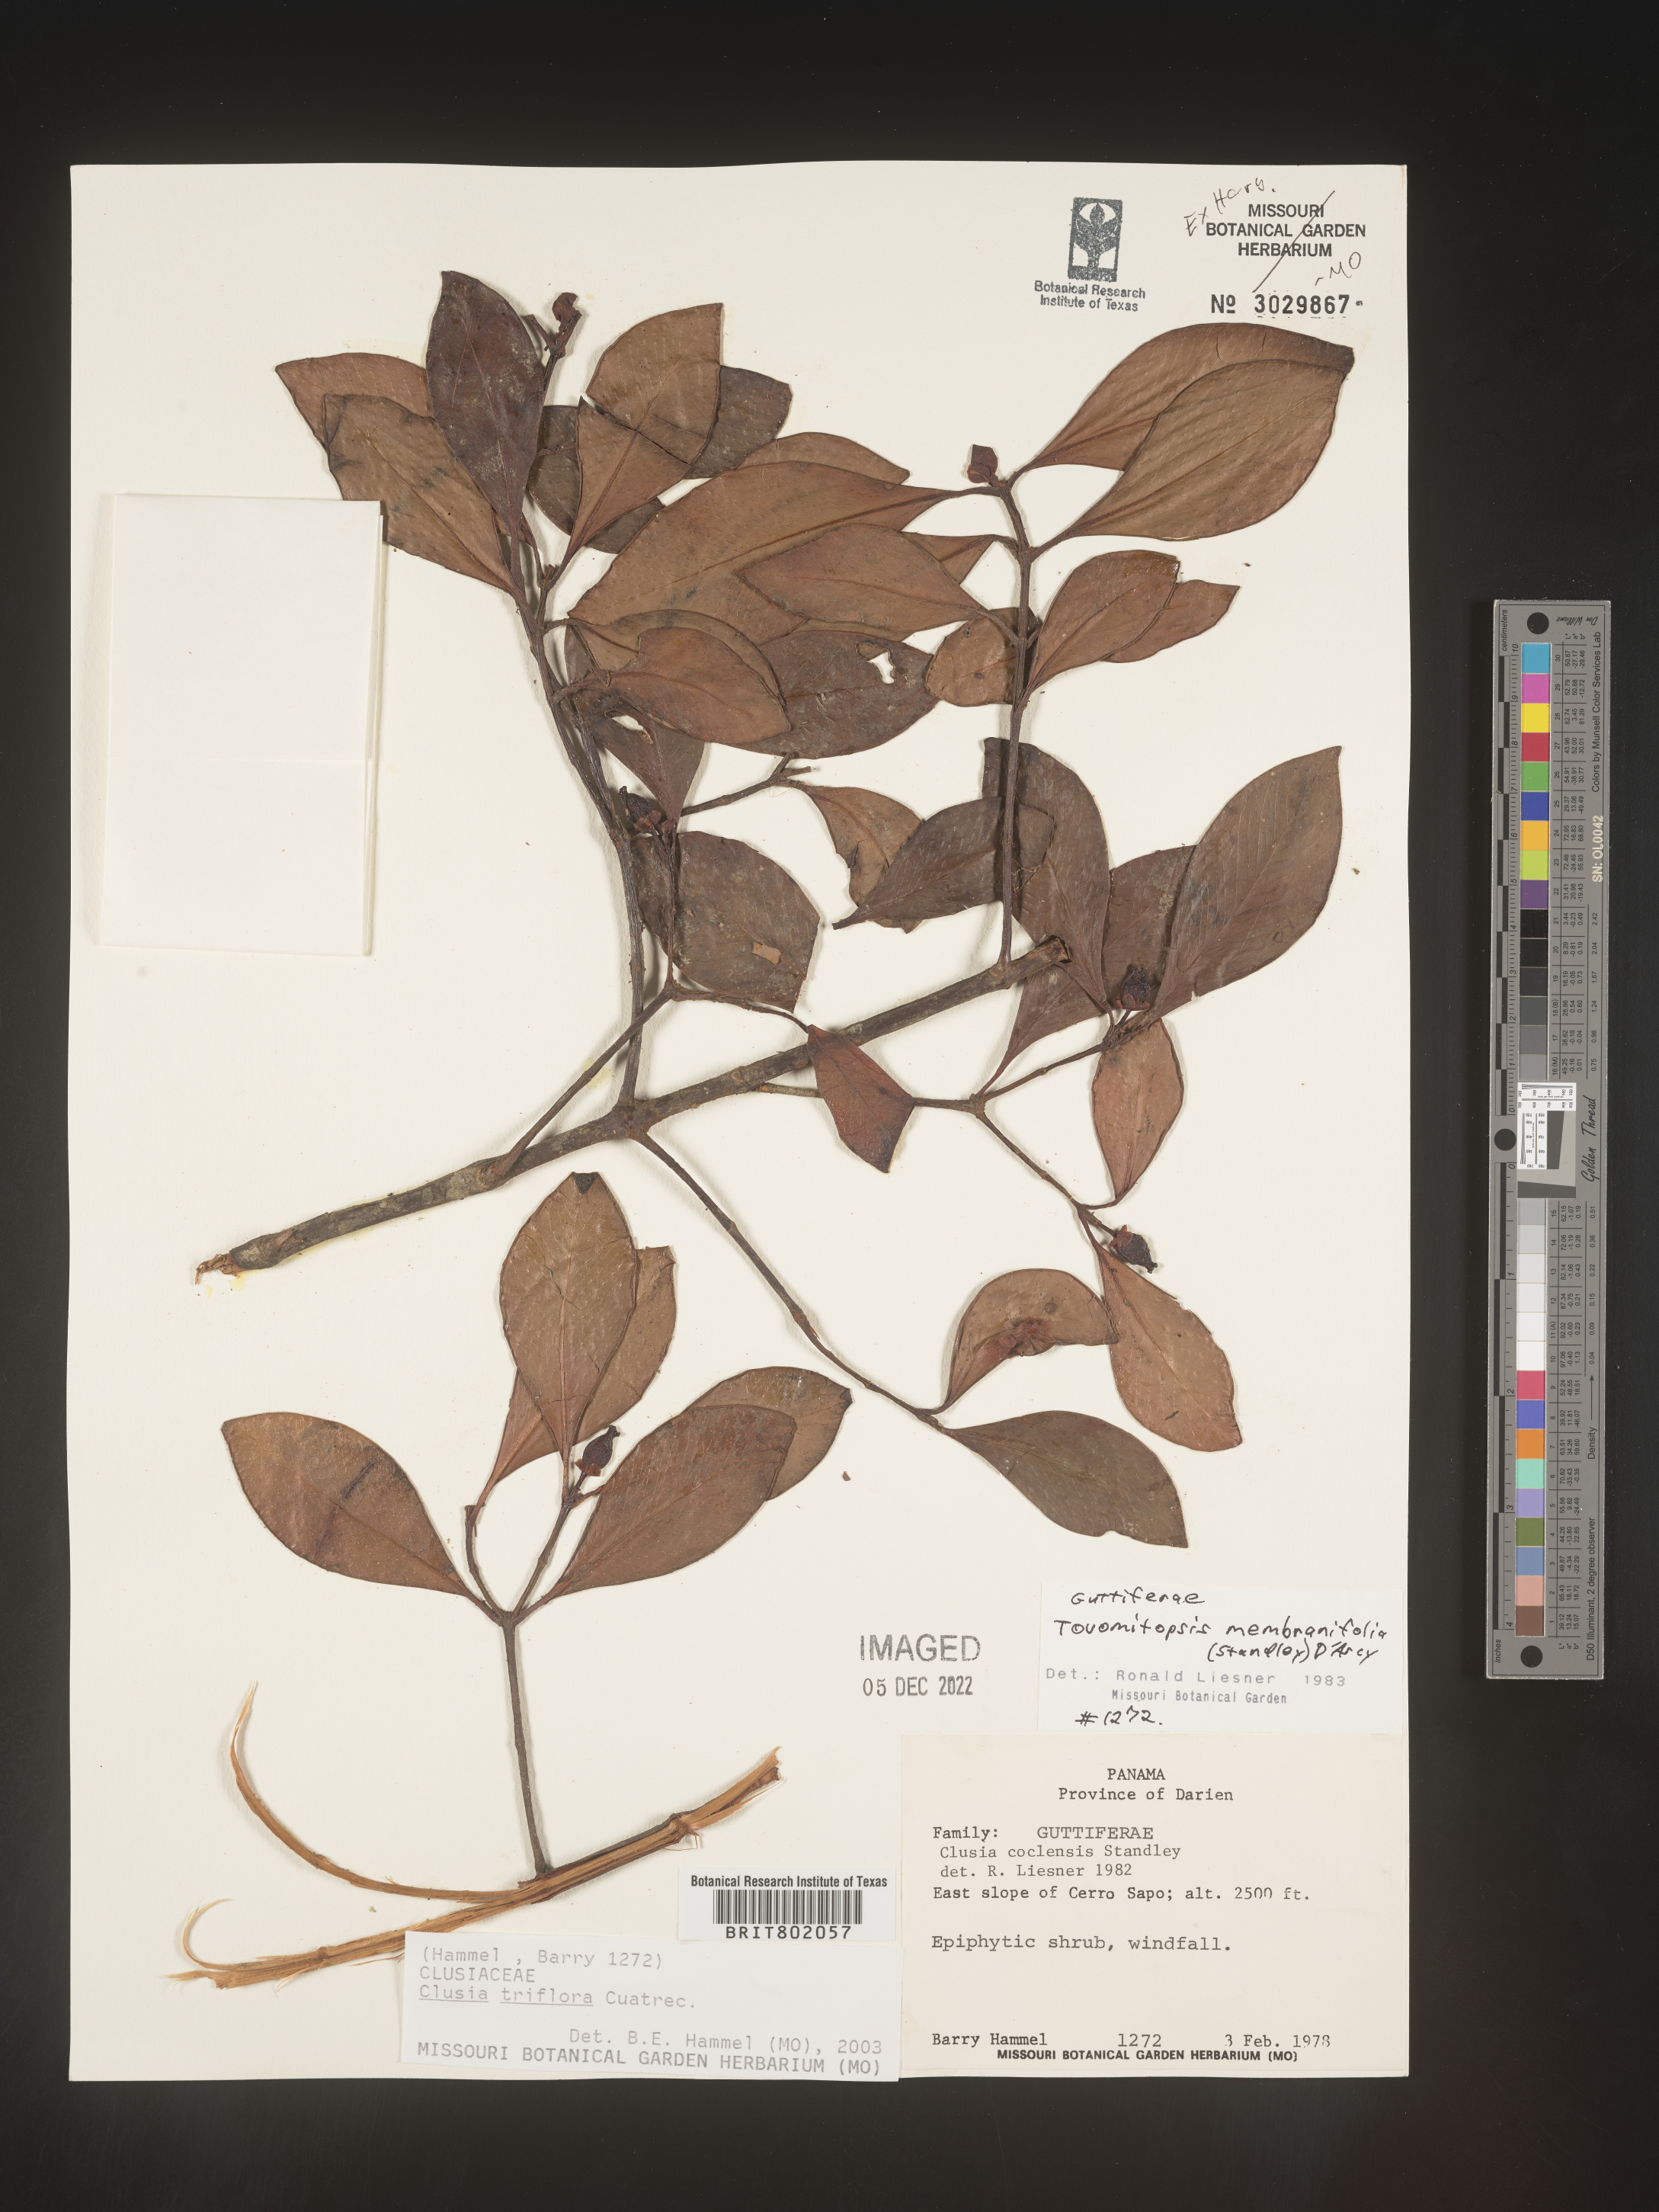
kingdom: Plantae
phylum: Tracheophyta
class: Magnoliopsida
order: Malpighiales
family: Clusiaceae
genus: Clusia
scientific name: Clusia
